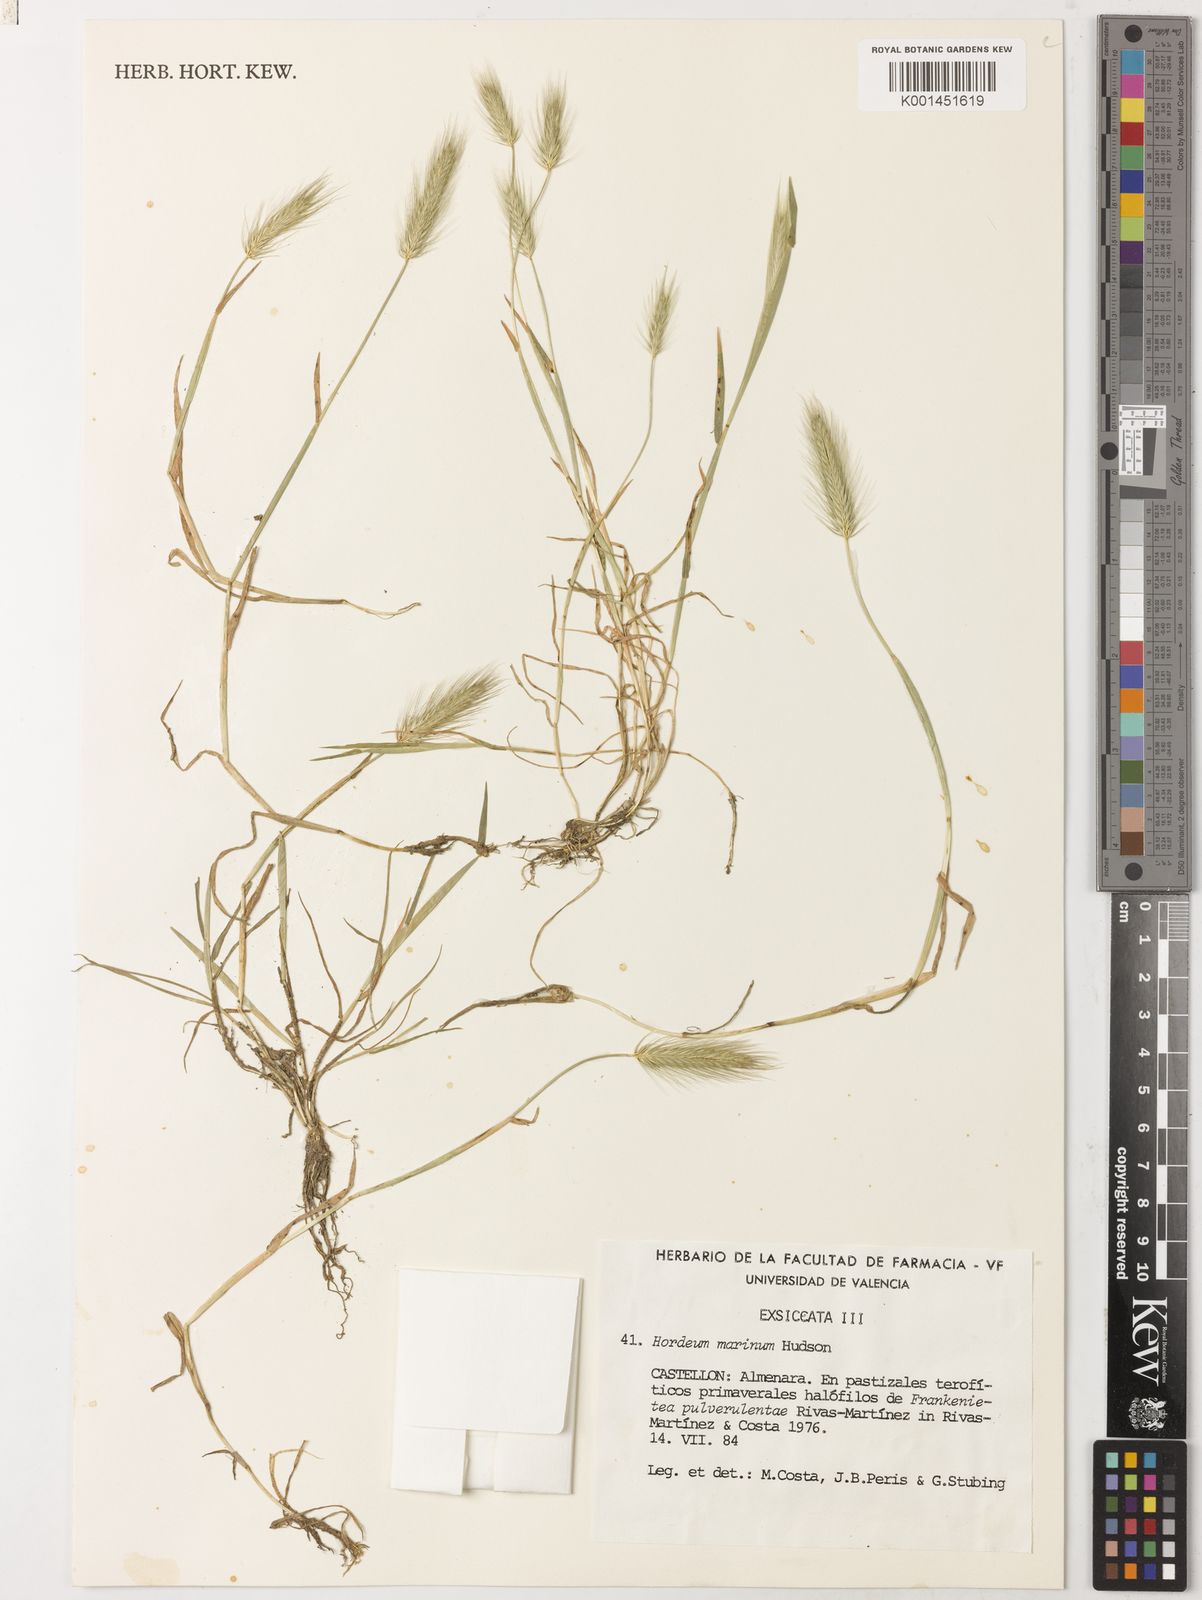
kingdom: Plantae
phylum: Tracheophyta
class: Liliopsida
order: Poales
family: Poaceae
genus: Hordeum
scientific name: Hordeum marinum
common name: Sea barley
